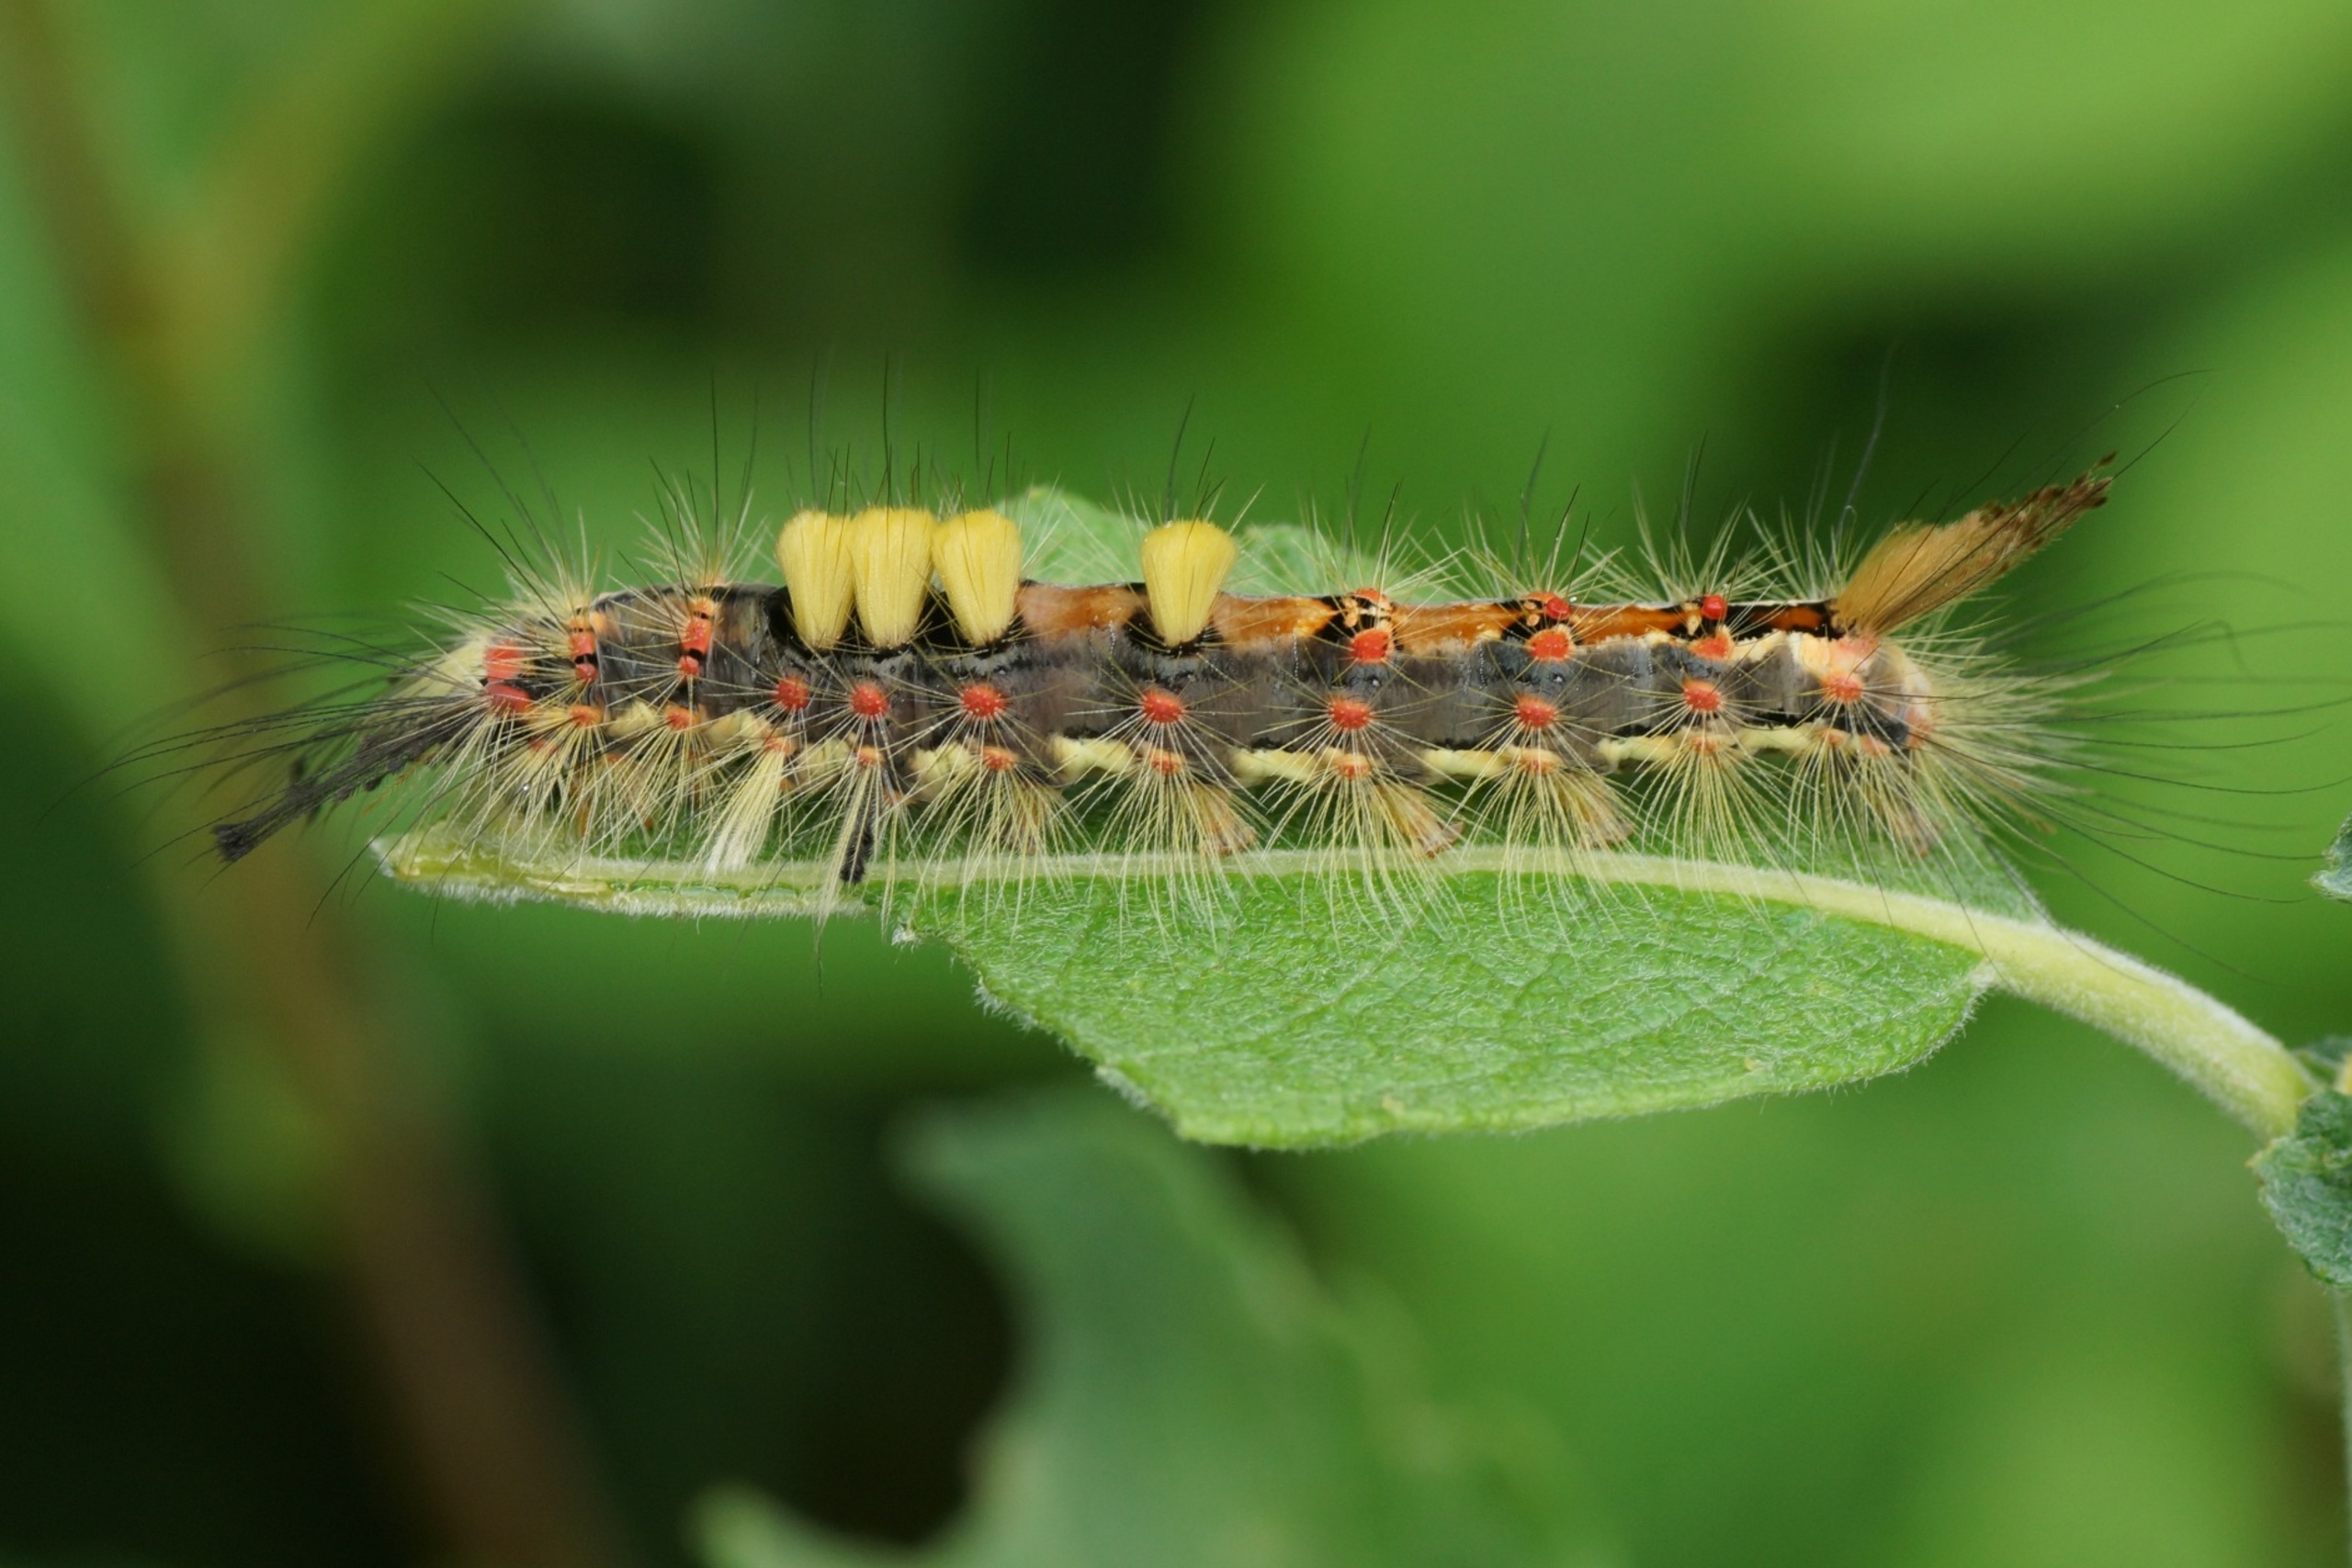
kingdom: Animalia
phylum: Arthropoda
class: Insecta
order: Lepidoptera
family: Erebidae
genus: Orgyia
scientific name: Orgyia antiqua
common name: Lille penselspinder
